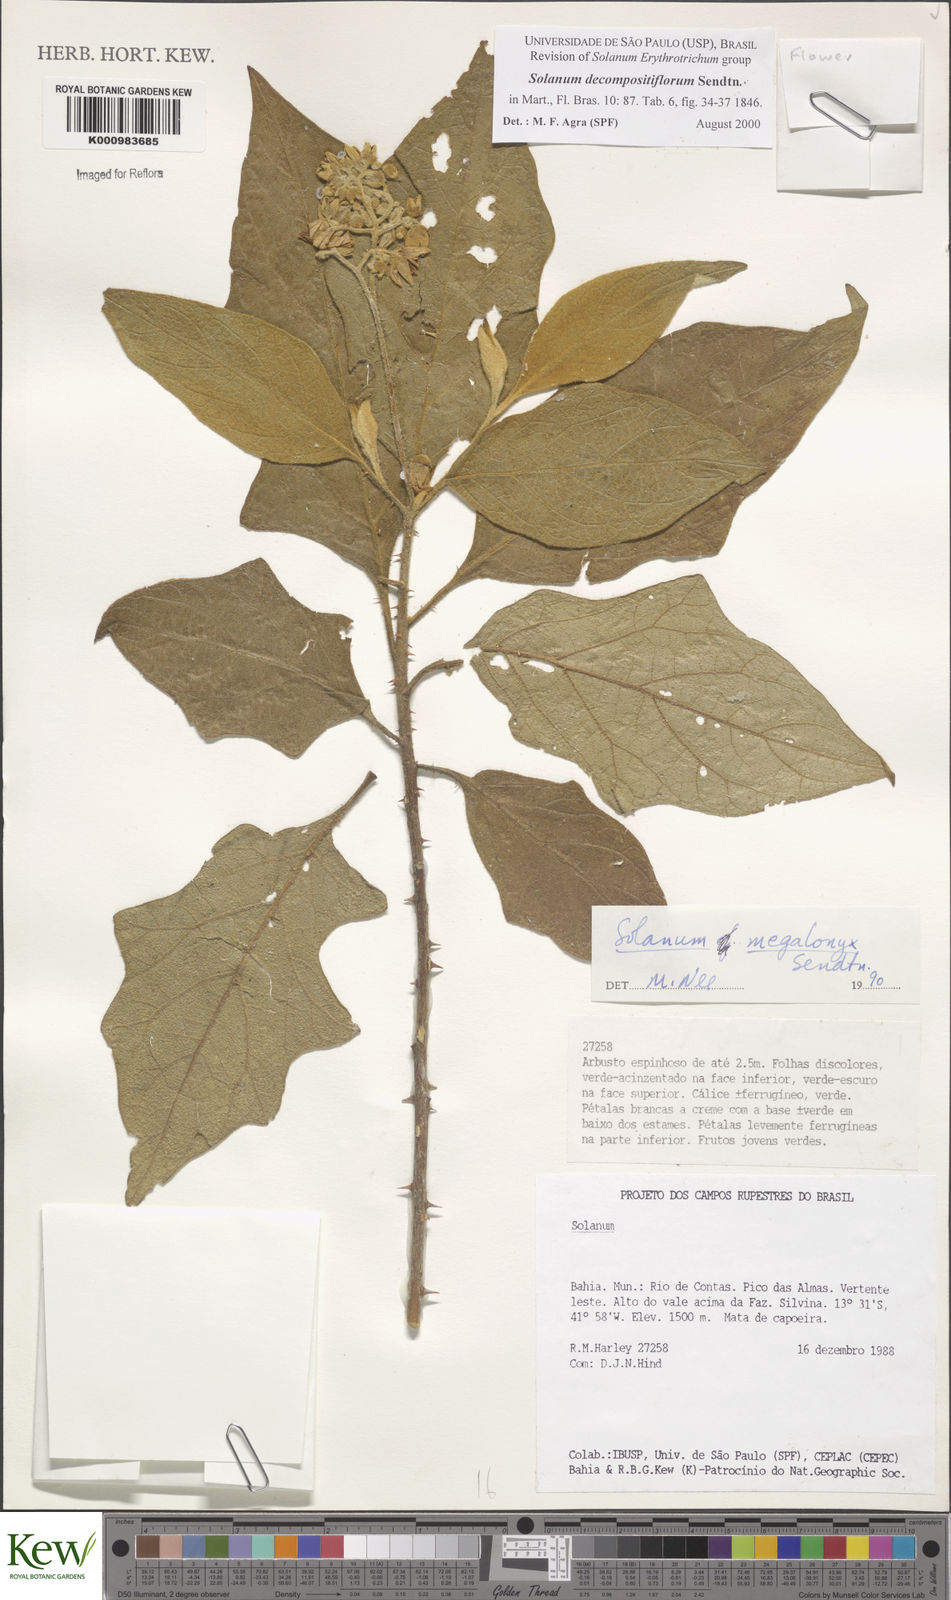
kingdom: Plantae
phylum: Tracheophyta
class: Magnoliopsida
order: Solanales
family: Solanaceae
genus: Solanum
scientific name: Solanum decompositiflorum
